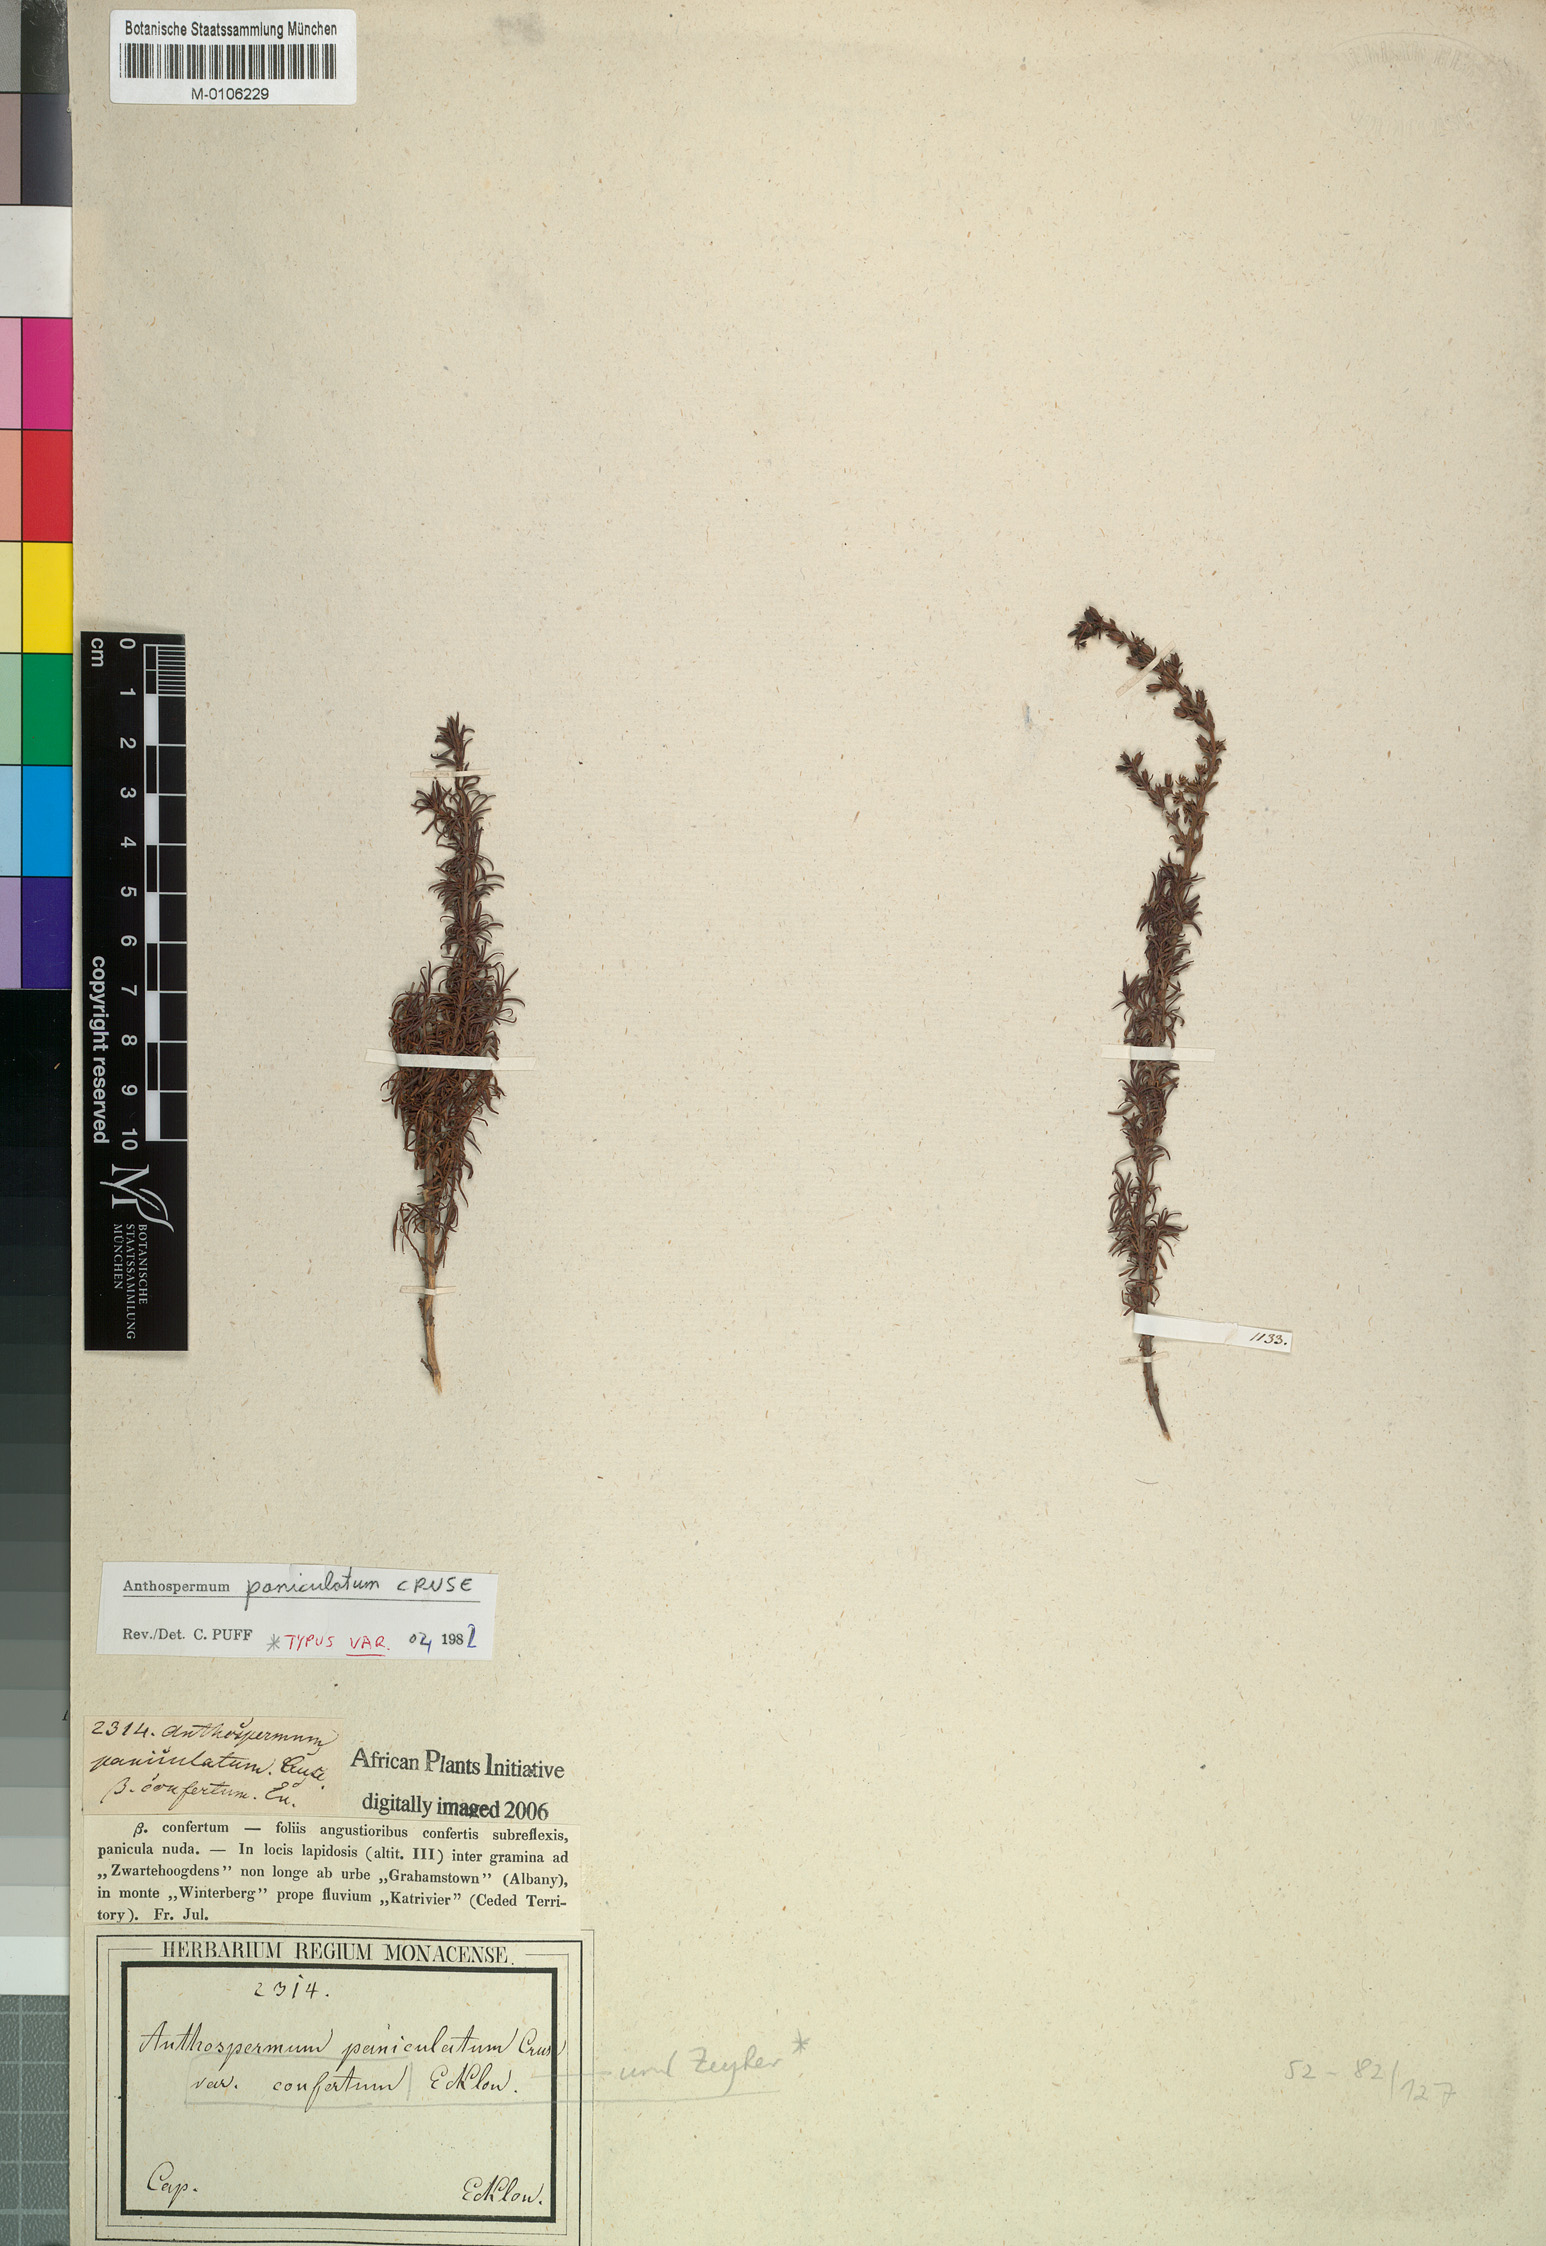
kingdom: Plantae
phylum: Tracheophyta
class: Magnoliopsida
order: Gentianales
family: Rubiaceae
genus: Anthospermum
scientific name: Anthospermum paniculatum
